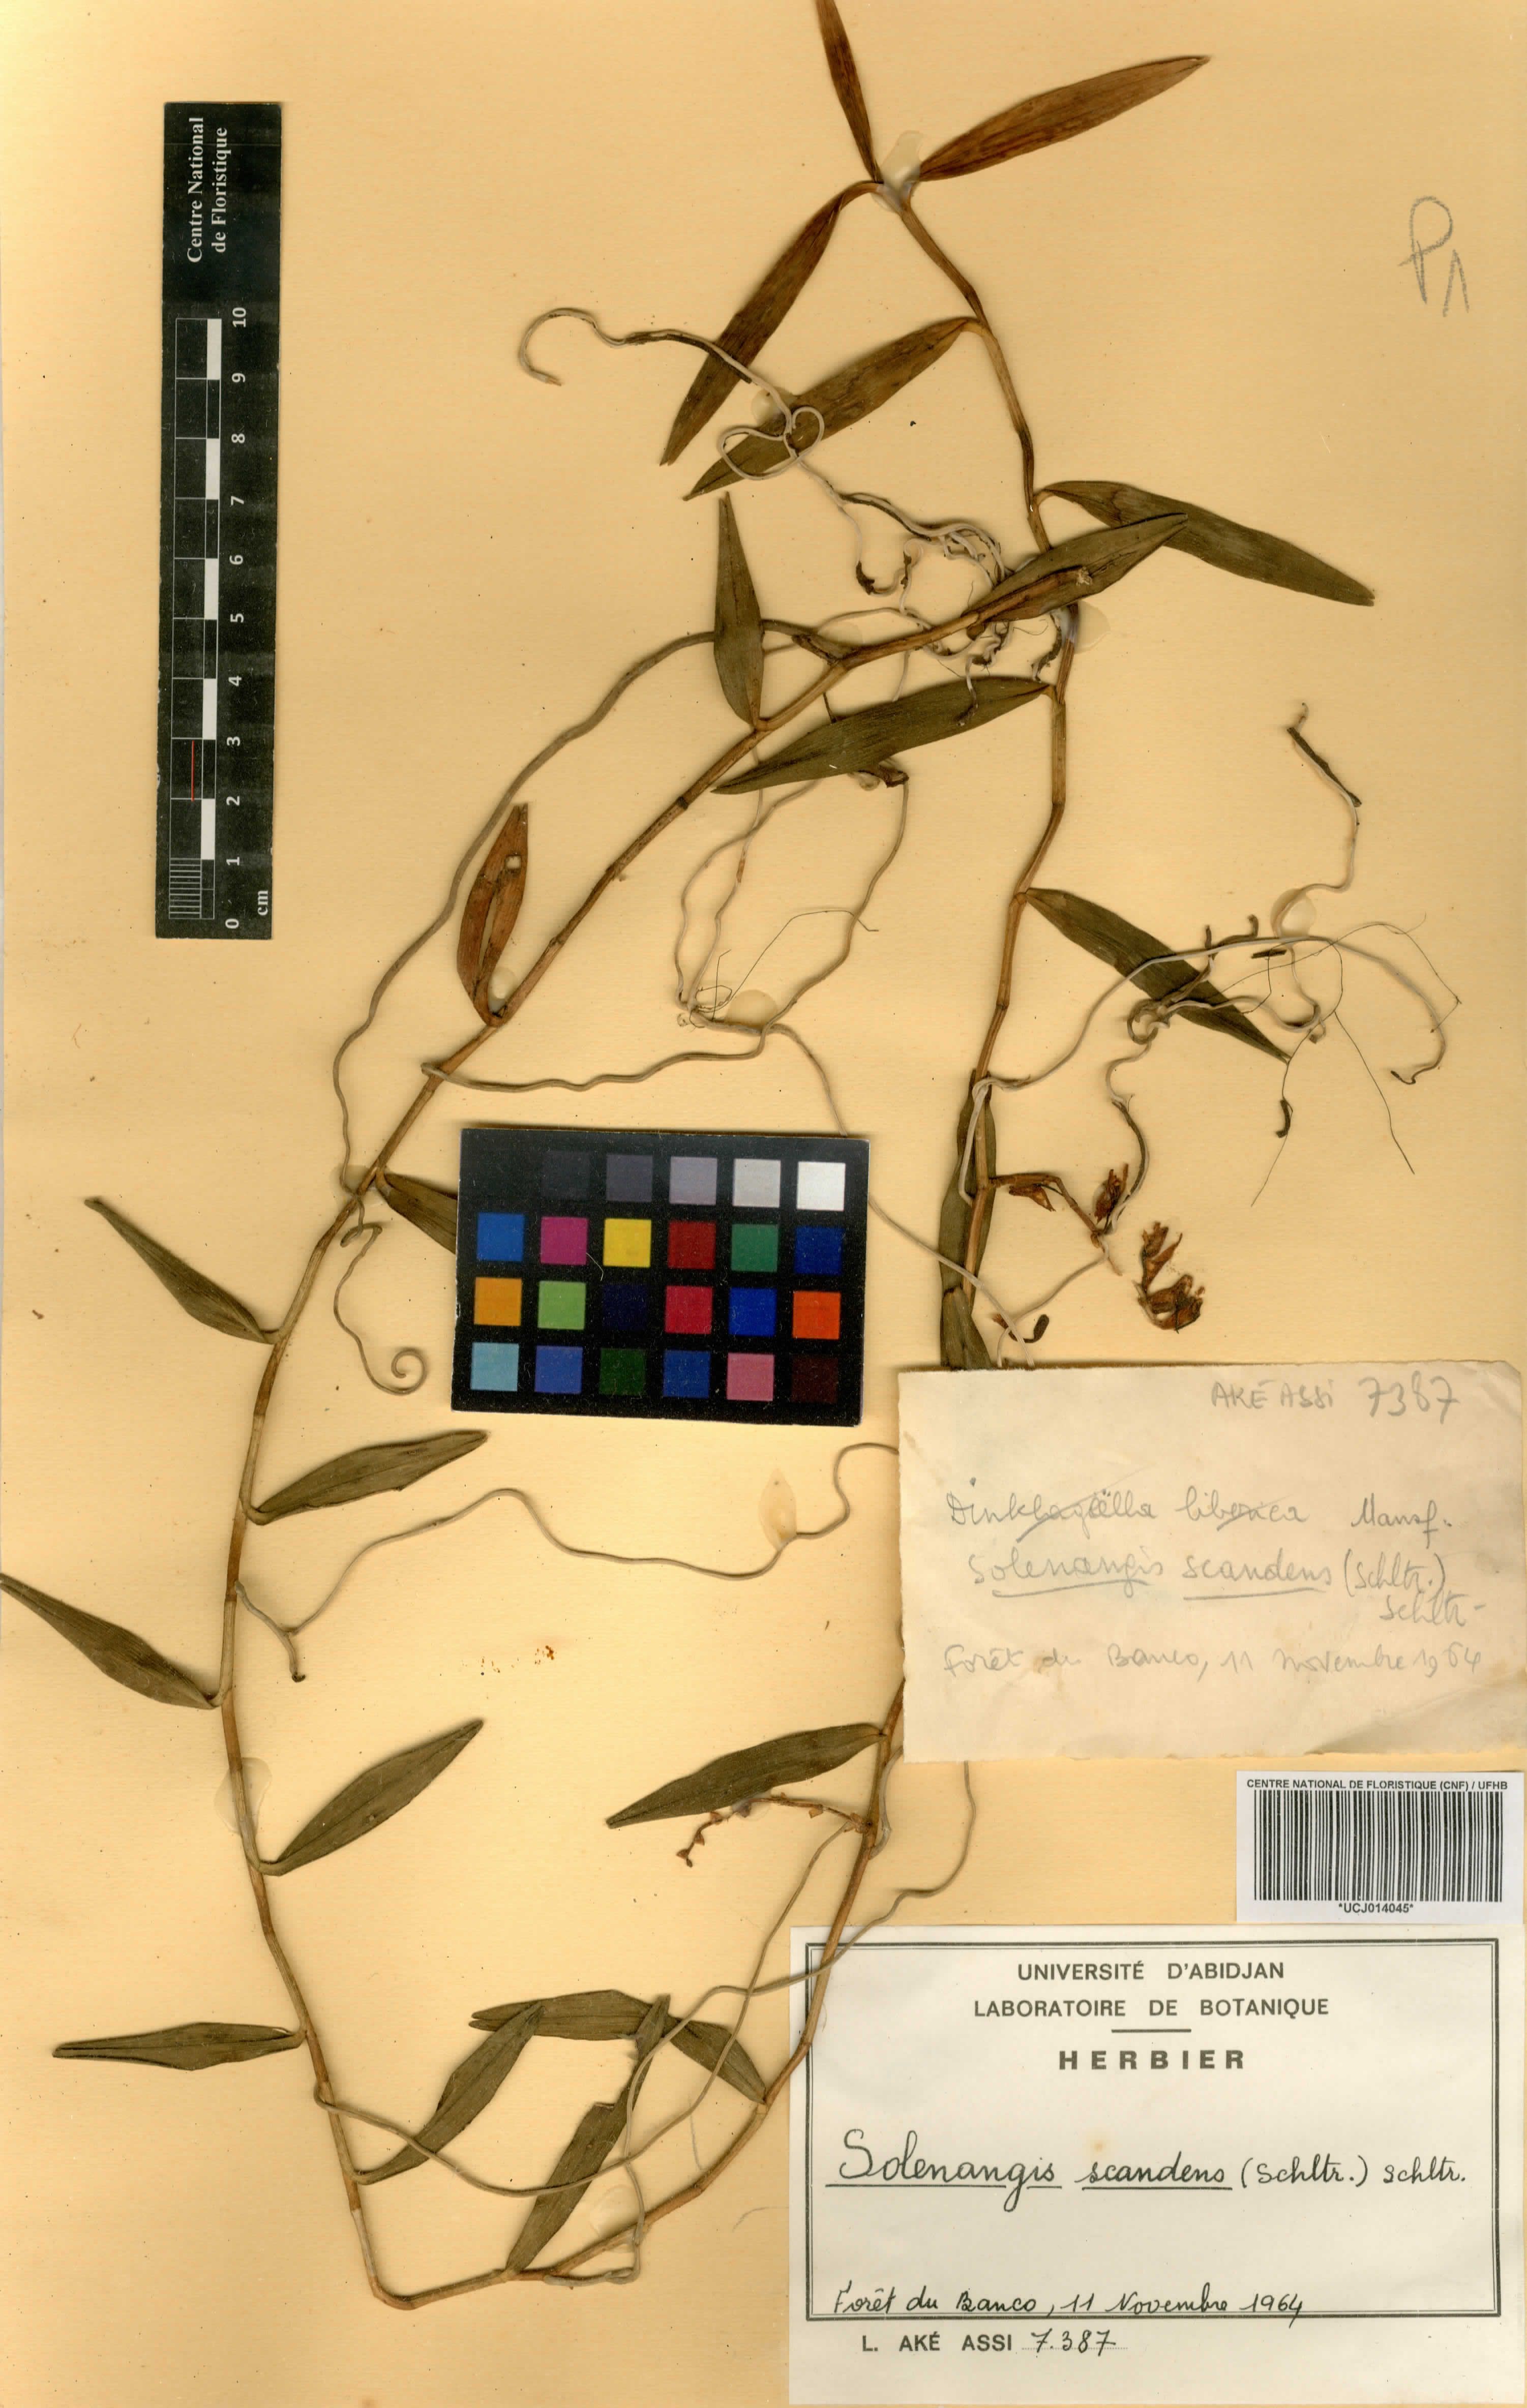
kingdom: Plantae
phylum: Tracheophyta
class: Liliopsida
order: Asparagales
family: Orchidaceae
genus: Solenangis
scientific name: Solenangis scandens
